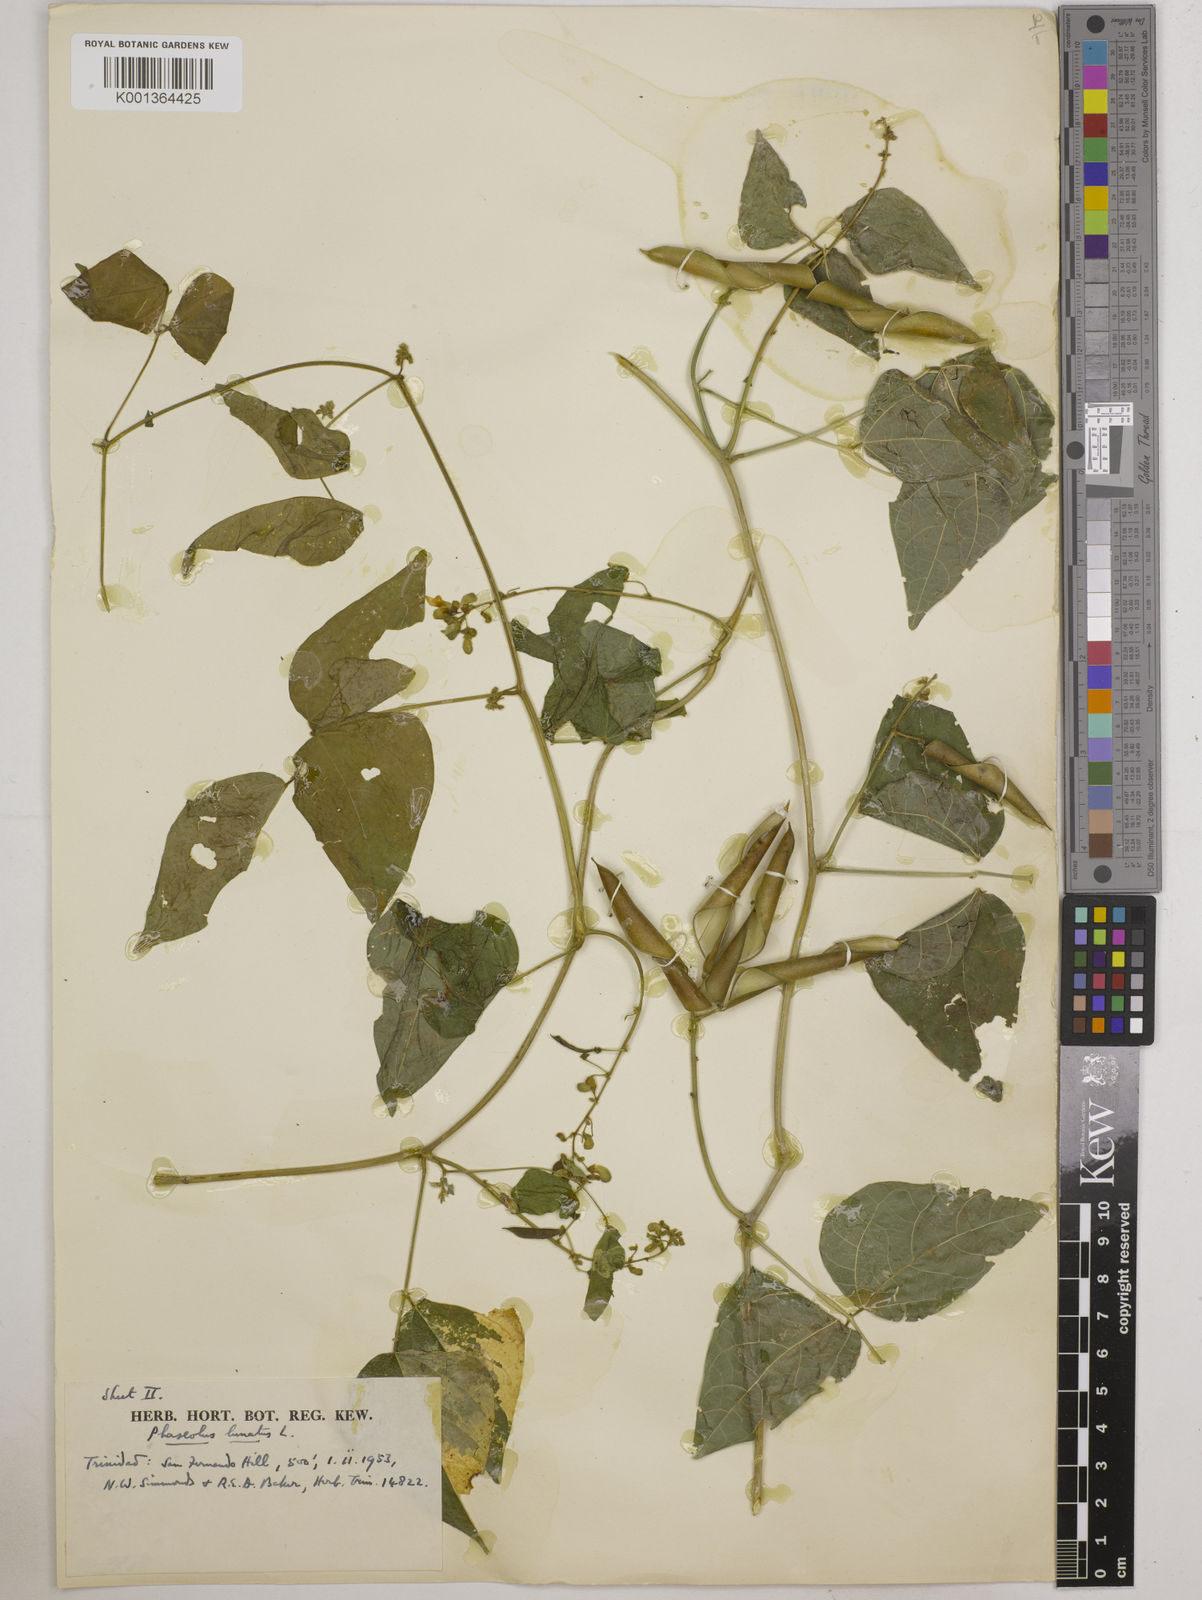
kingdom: Plantae
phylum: Tracheophyta
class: Magnoliopsida
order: Fabales
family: Fabaceae
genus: Phaseolus
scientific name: Phaseolus lunatus
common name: Sieva bean
